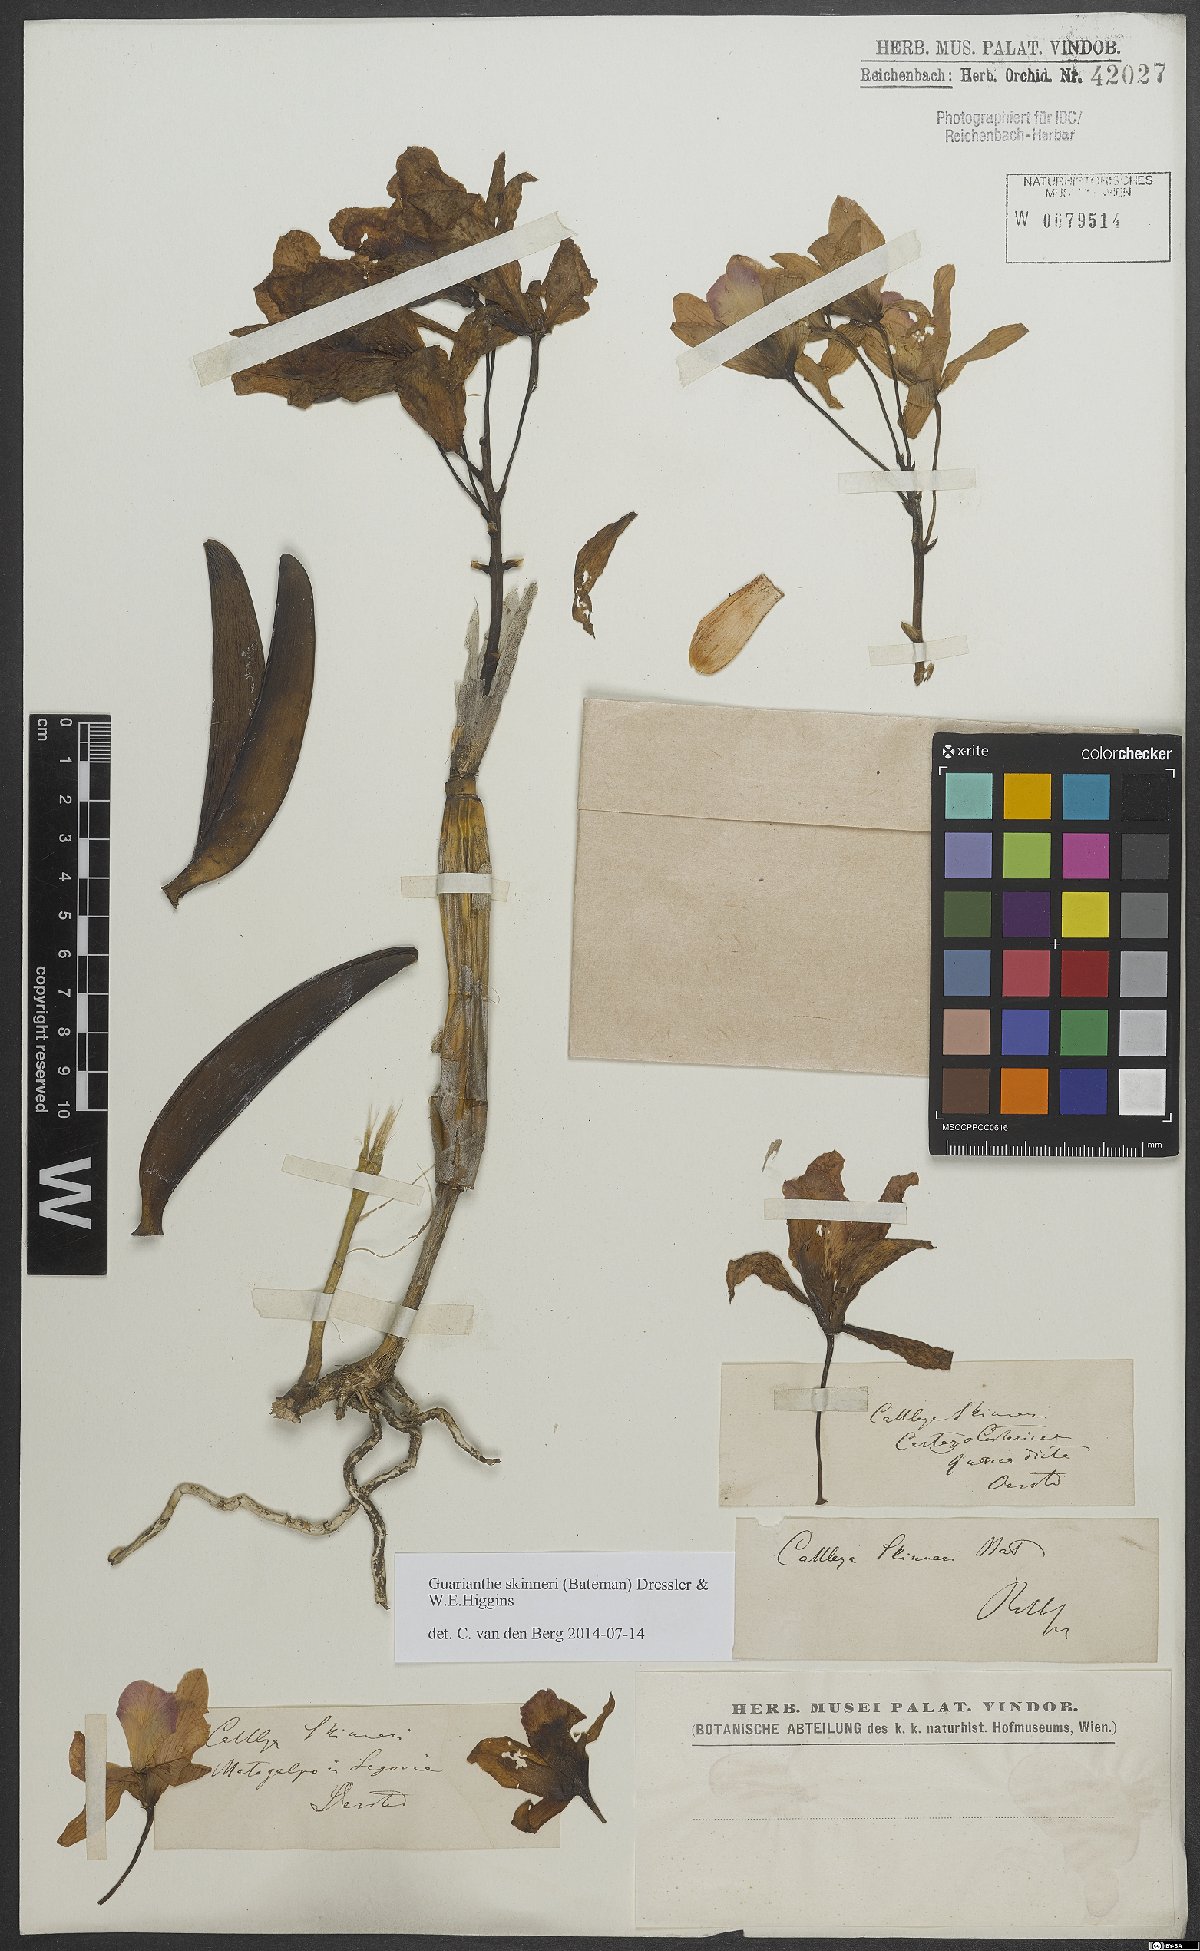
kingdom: Plantae
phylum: Tracheophyta
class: Liliopsida
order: Asparagales
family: Orchidaceae
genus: Guarianthe
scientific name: Guarianthe skinneri
